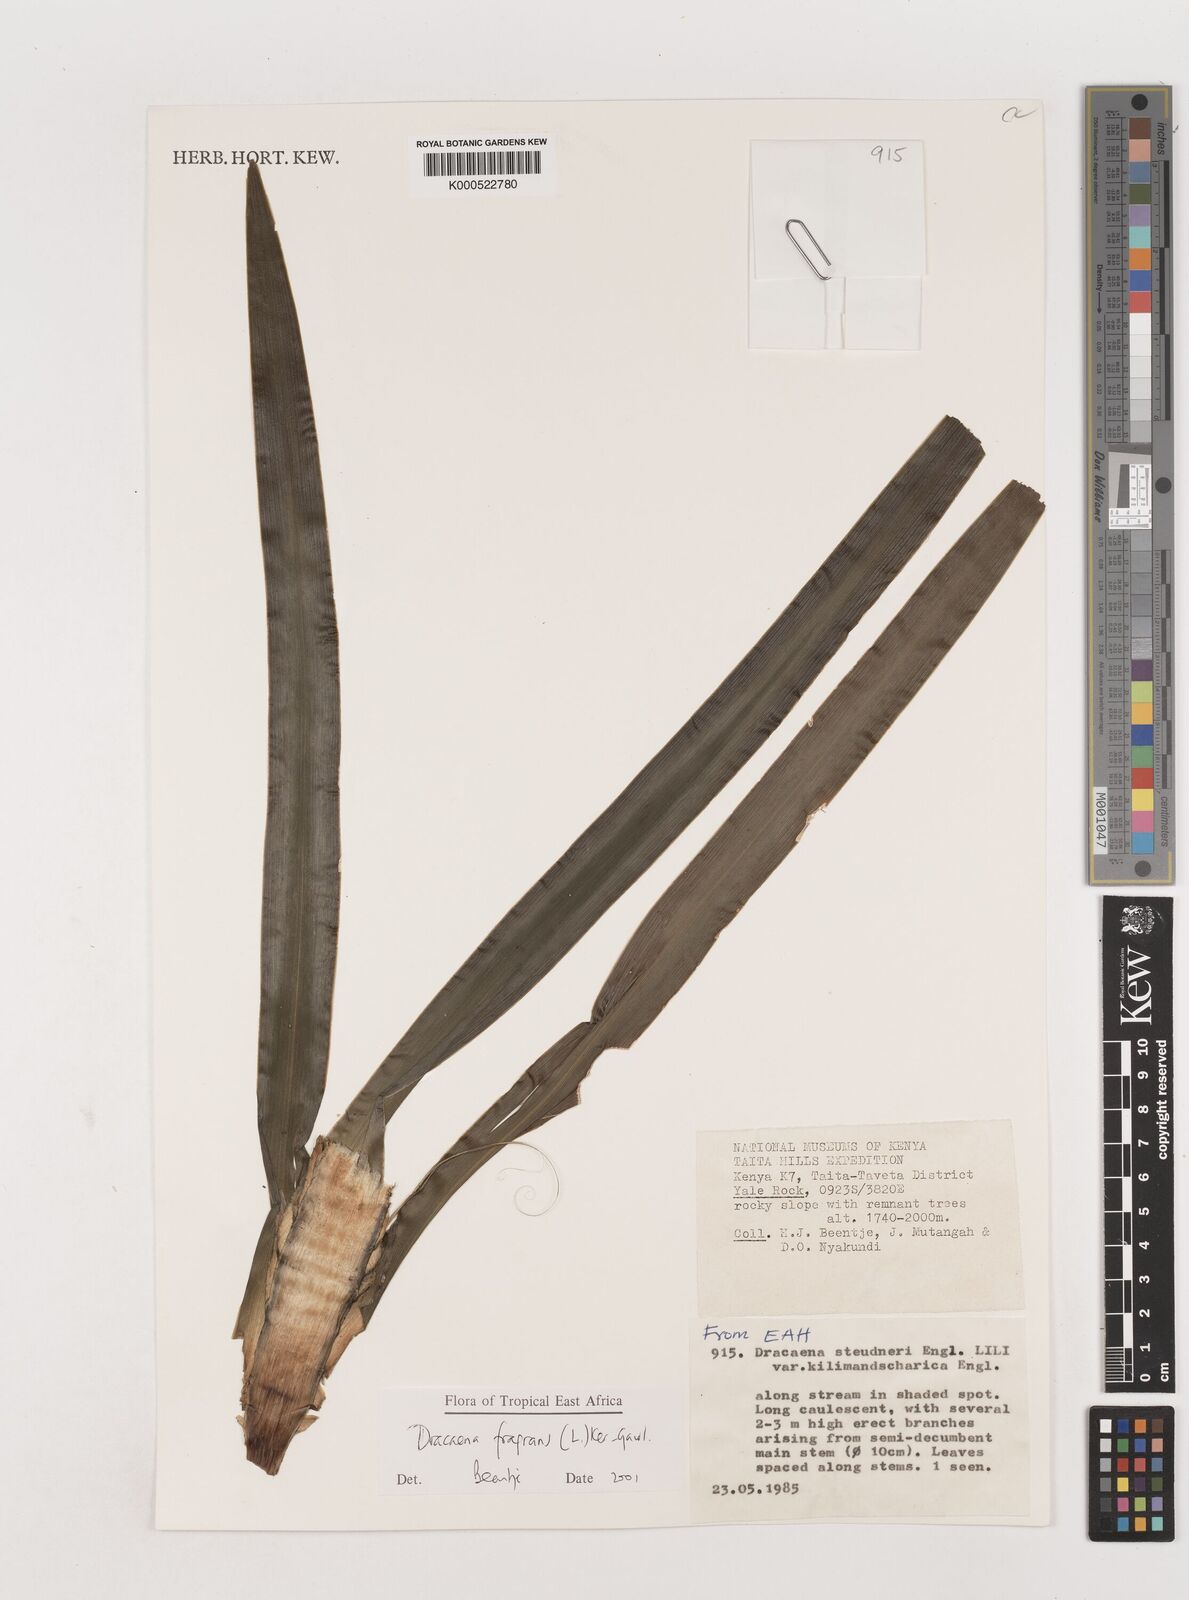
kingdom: Plantae
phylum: Tracheophyta
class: Liliopsida
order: Asparagales
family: Asparagaceae
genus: Dracaena
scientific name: Dracaena fragrans
